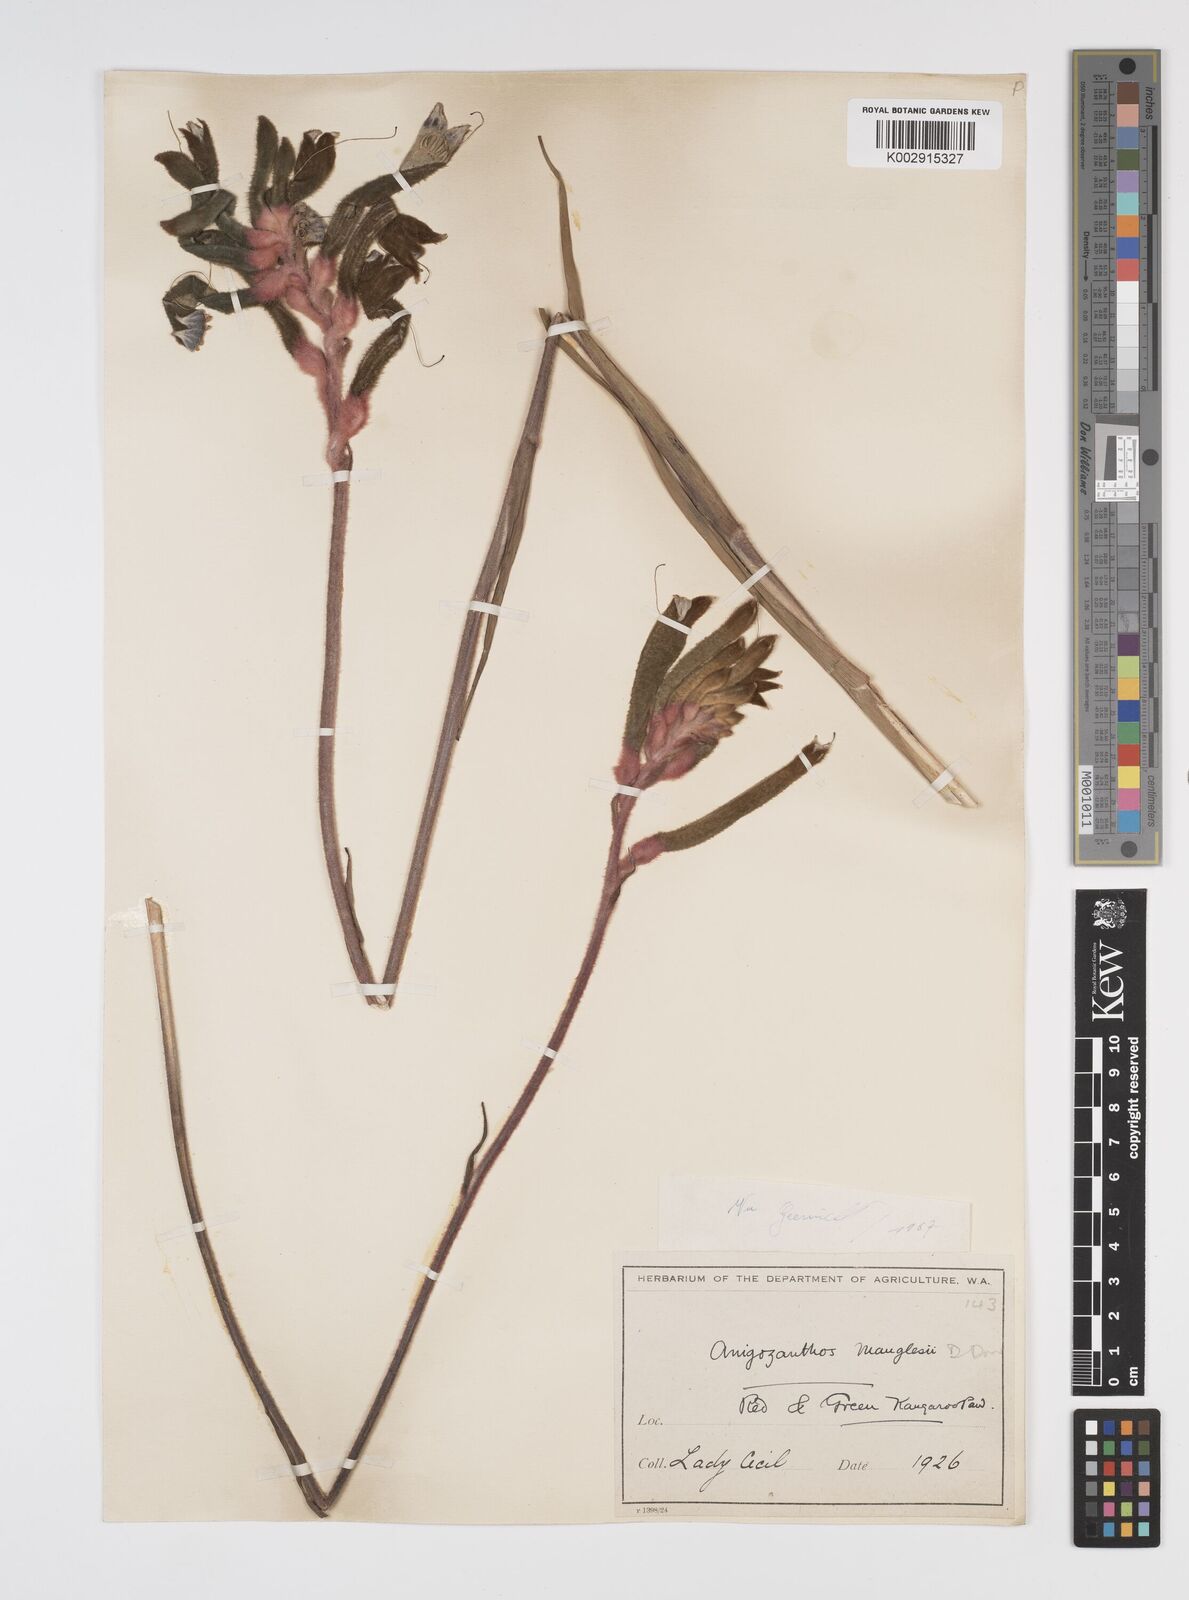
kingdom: Plantae
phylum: Tracheophyta
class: Liliopsida
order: Commelinales
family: Haemodoraceae
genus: Anigozanthos
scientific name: Anigozanthos manglesii
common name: Mangles's kangaroo-paw
